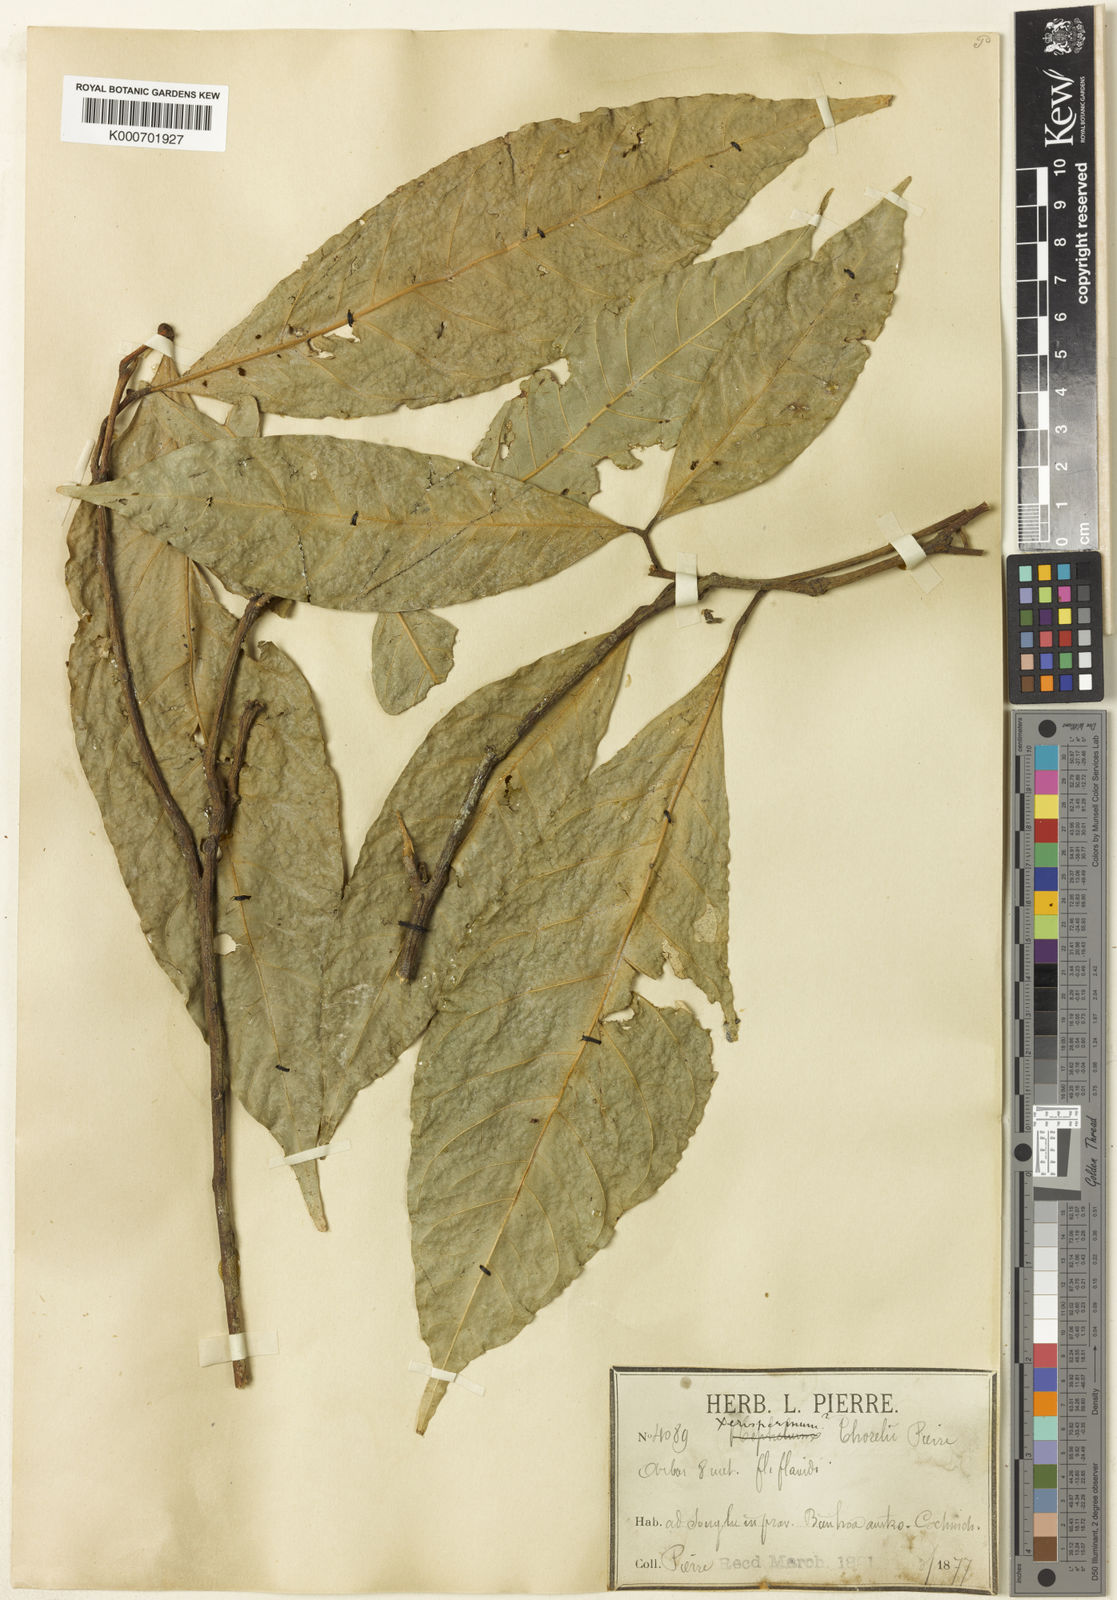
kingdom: Plantae
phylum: Tracheophyta
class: Magnoliopsida
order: Sapindales
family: Sapindaceae
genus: Glenniea
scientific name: Glenniea thorelii
